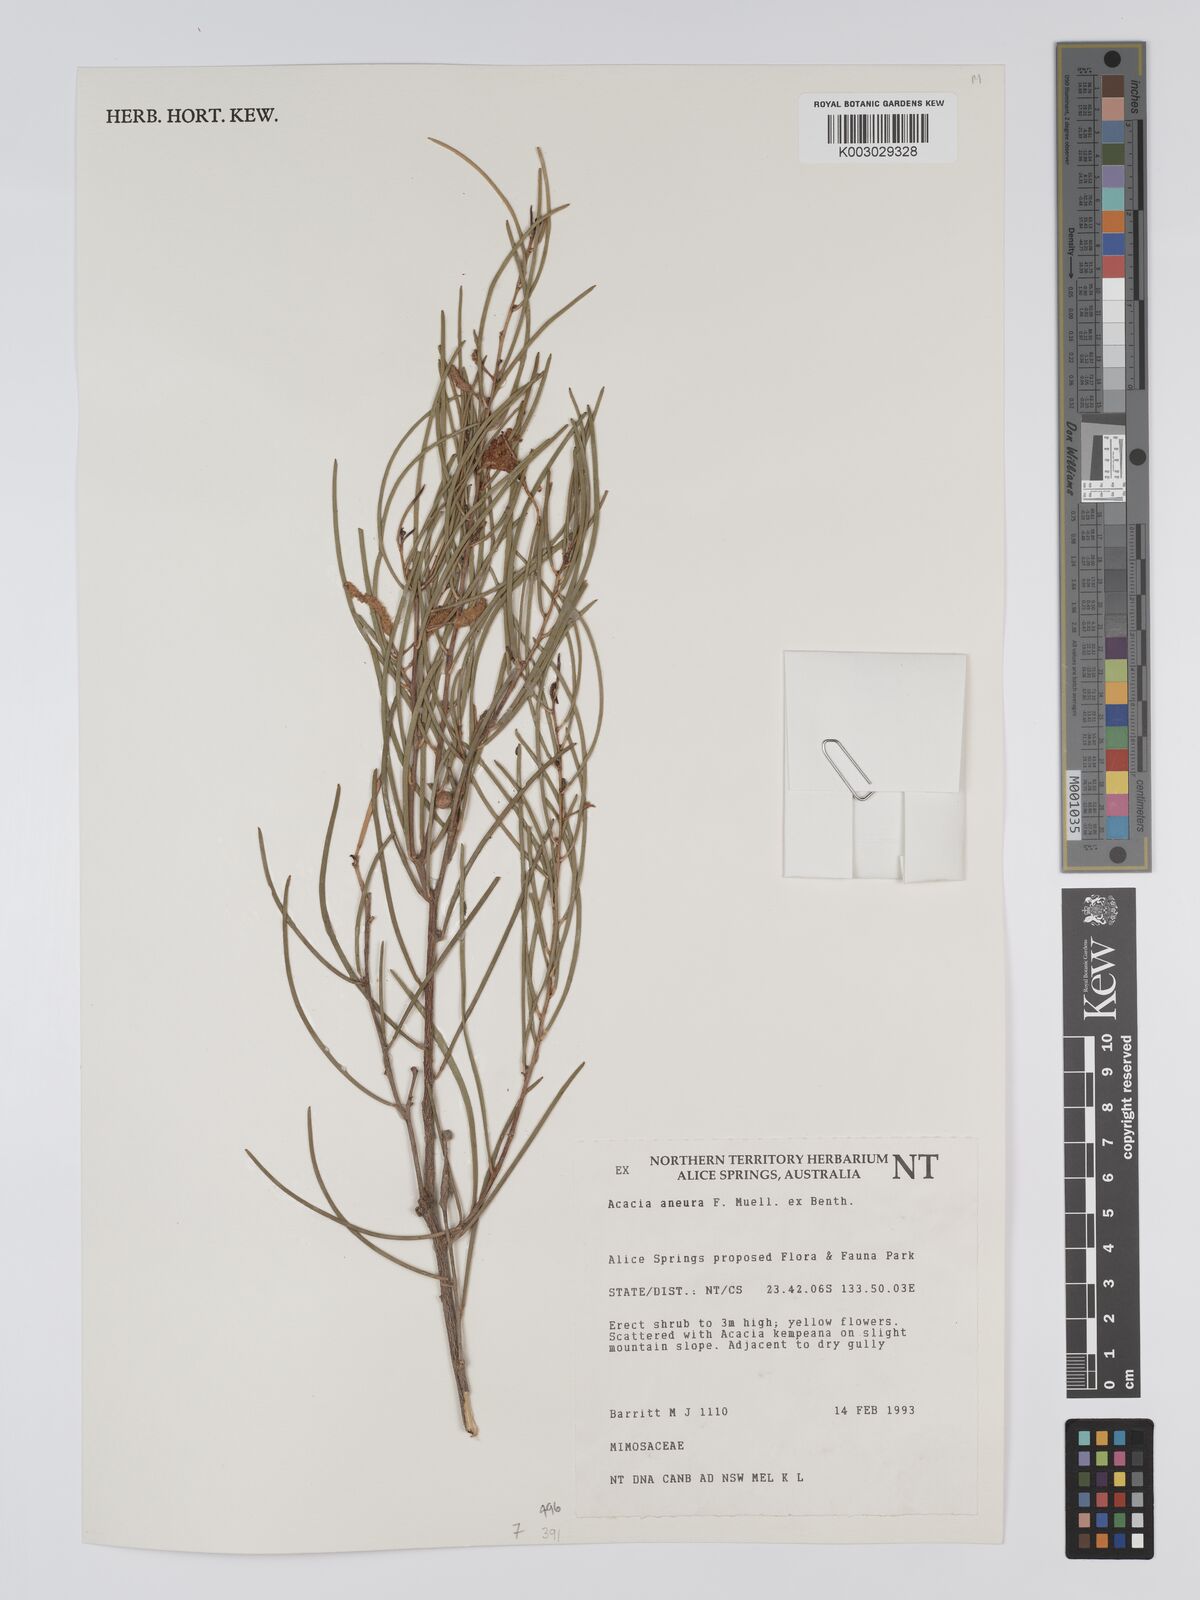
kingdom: Plantae
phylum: Tracheophyta
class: Magnoliopsida
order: Fabales
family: Fabaceae
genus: Acacia
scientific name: Acacia aneura
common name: Mulga
